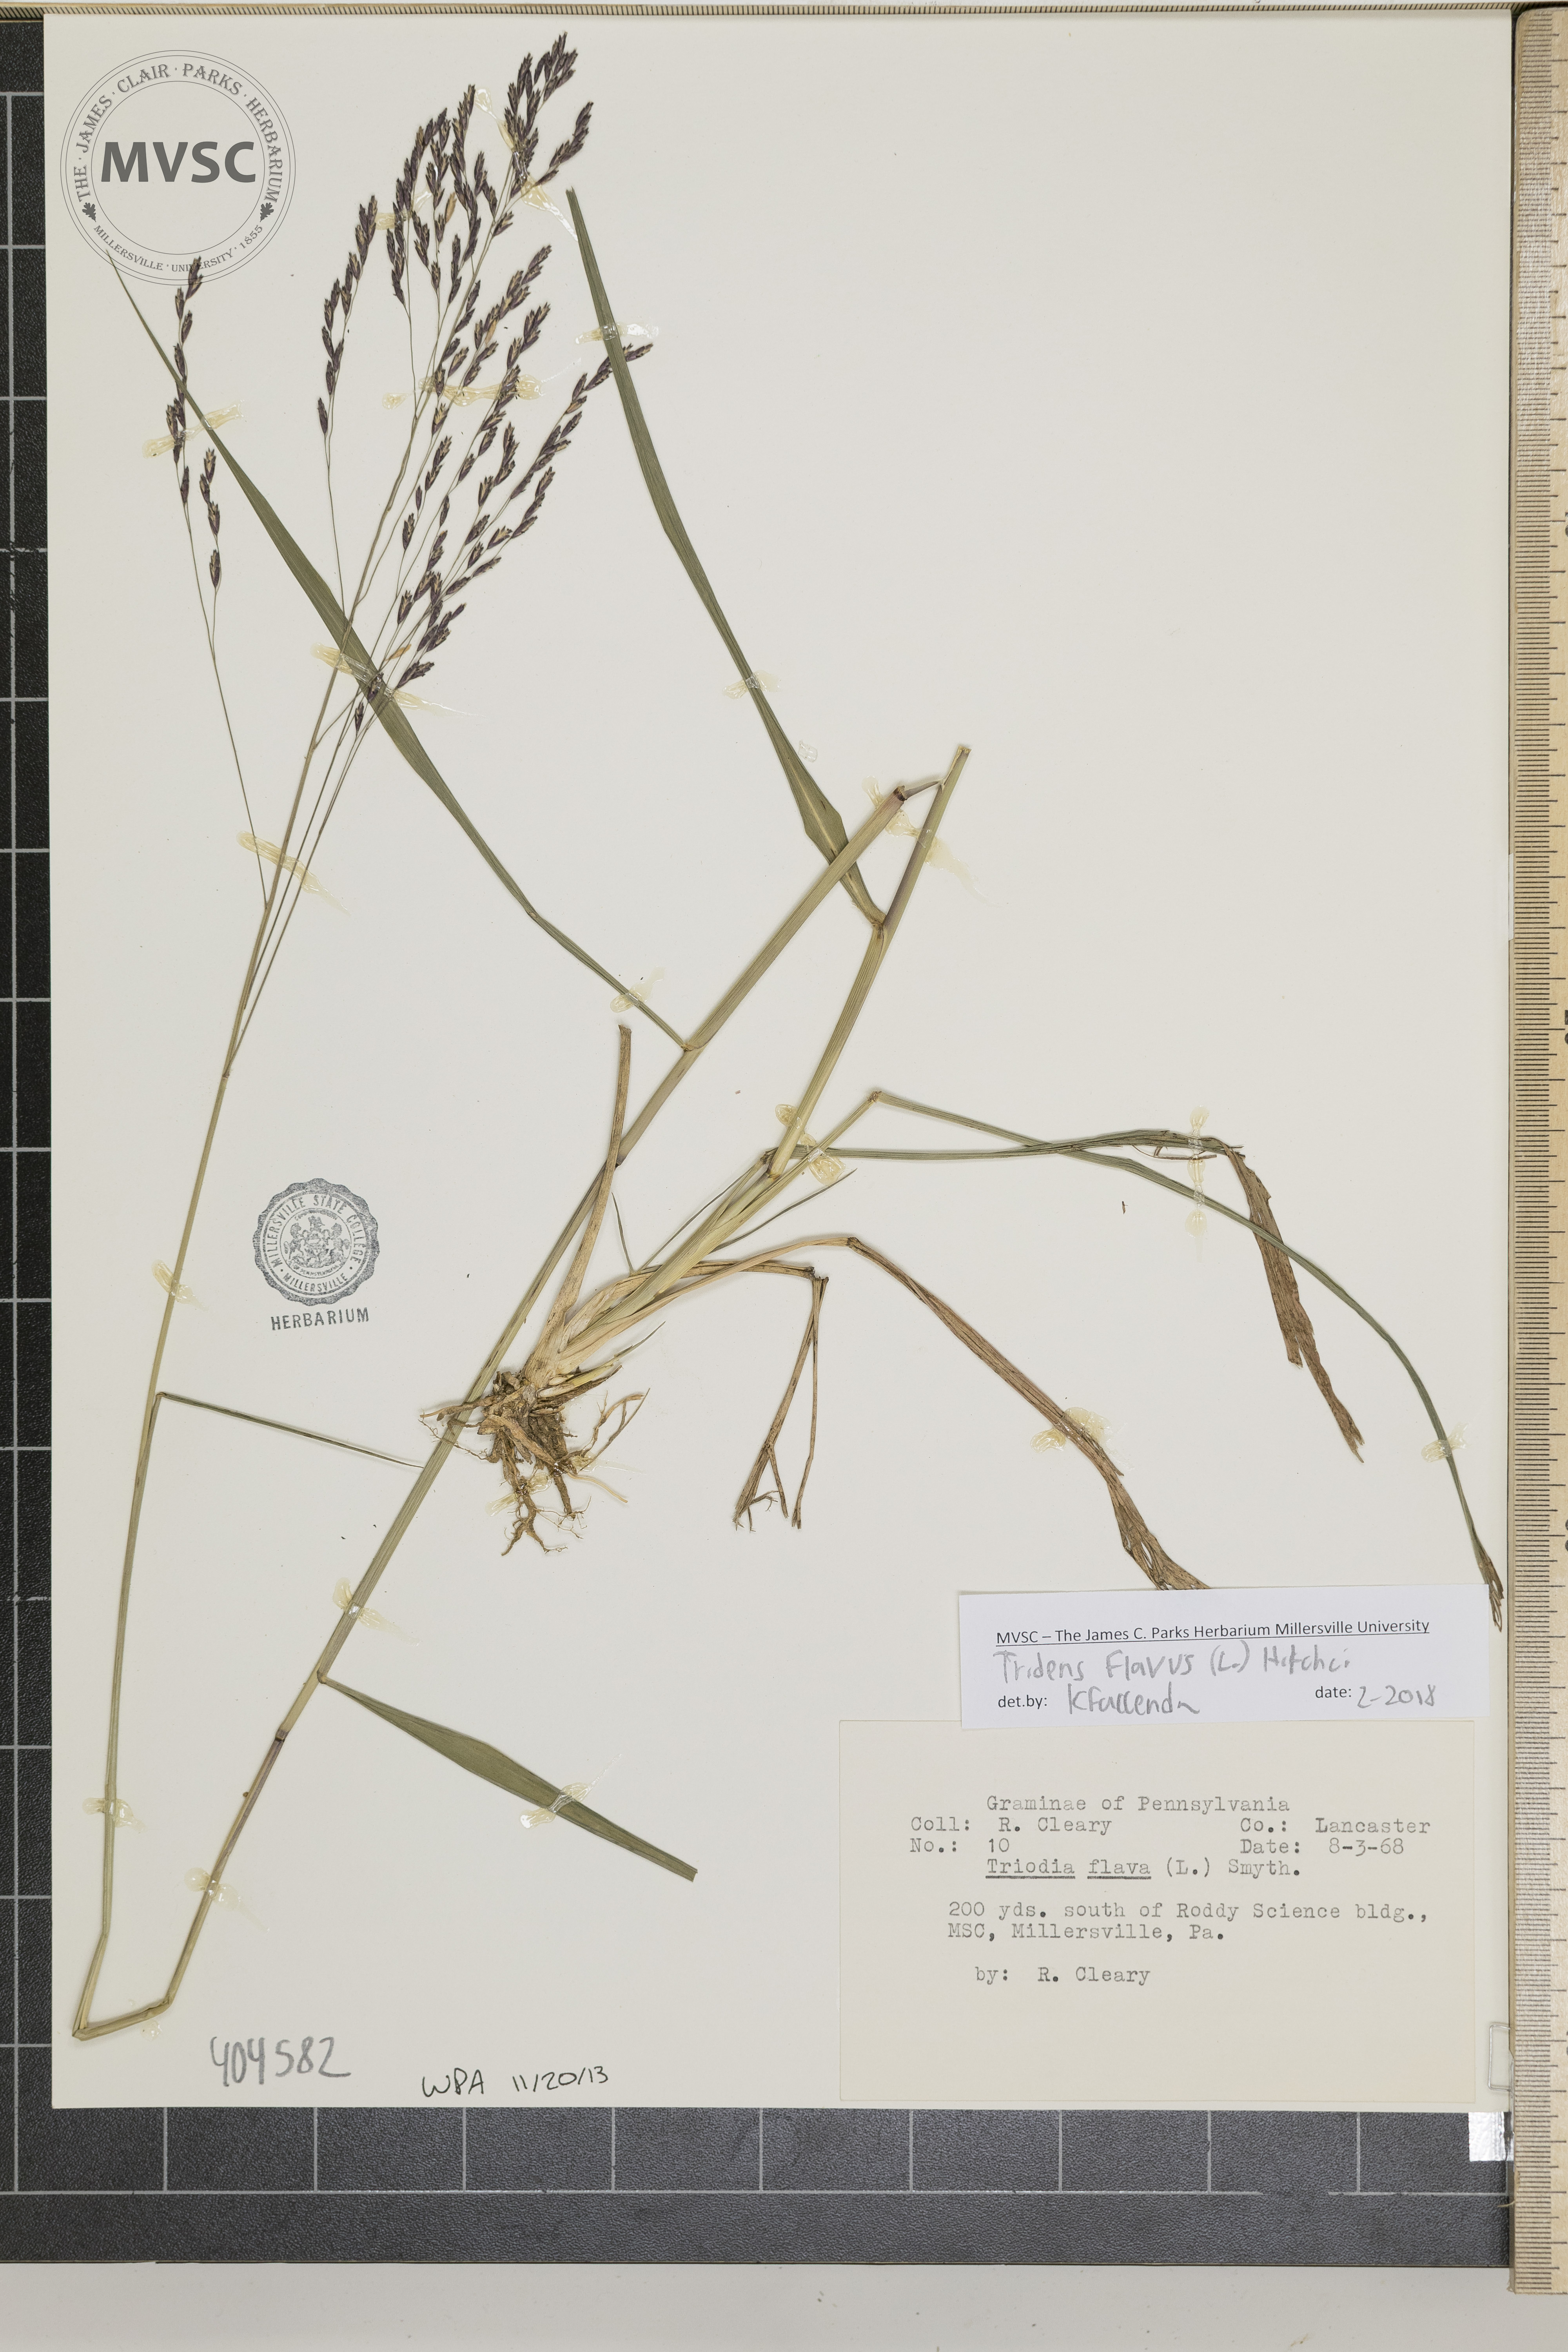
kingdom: Plantae
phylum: Tracheophyta
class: Liliopsida
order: Poales
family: Poaceae
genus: Tridens
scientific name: Tridens flavus
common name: Purpletop
